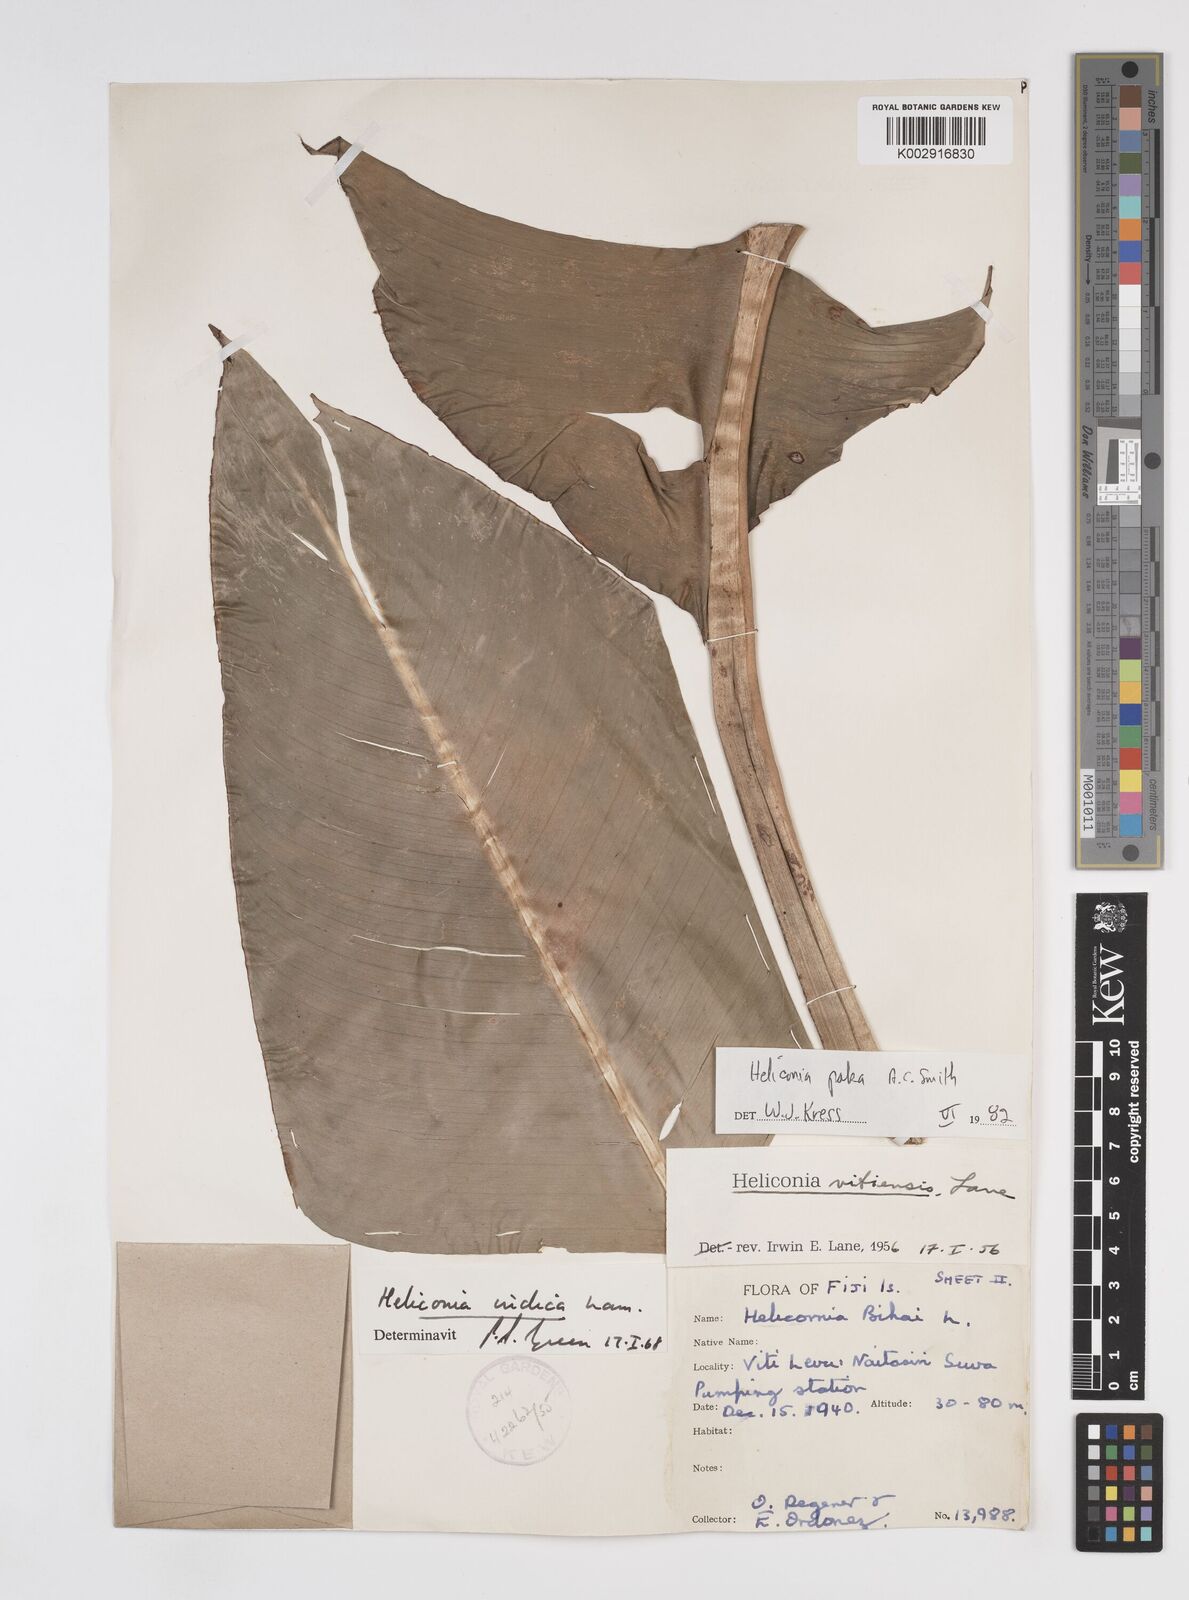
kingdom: Plantae
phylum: Tracheophyta
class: Liliopsida
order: Zingiberales
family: Heliconiaceae
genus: Heliconia
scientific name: Heliconia paka
